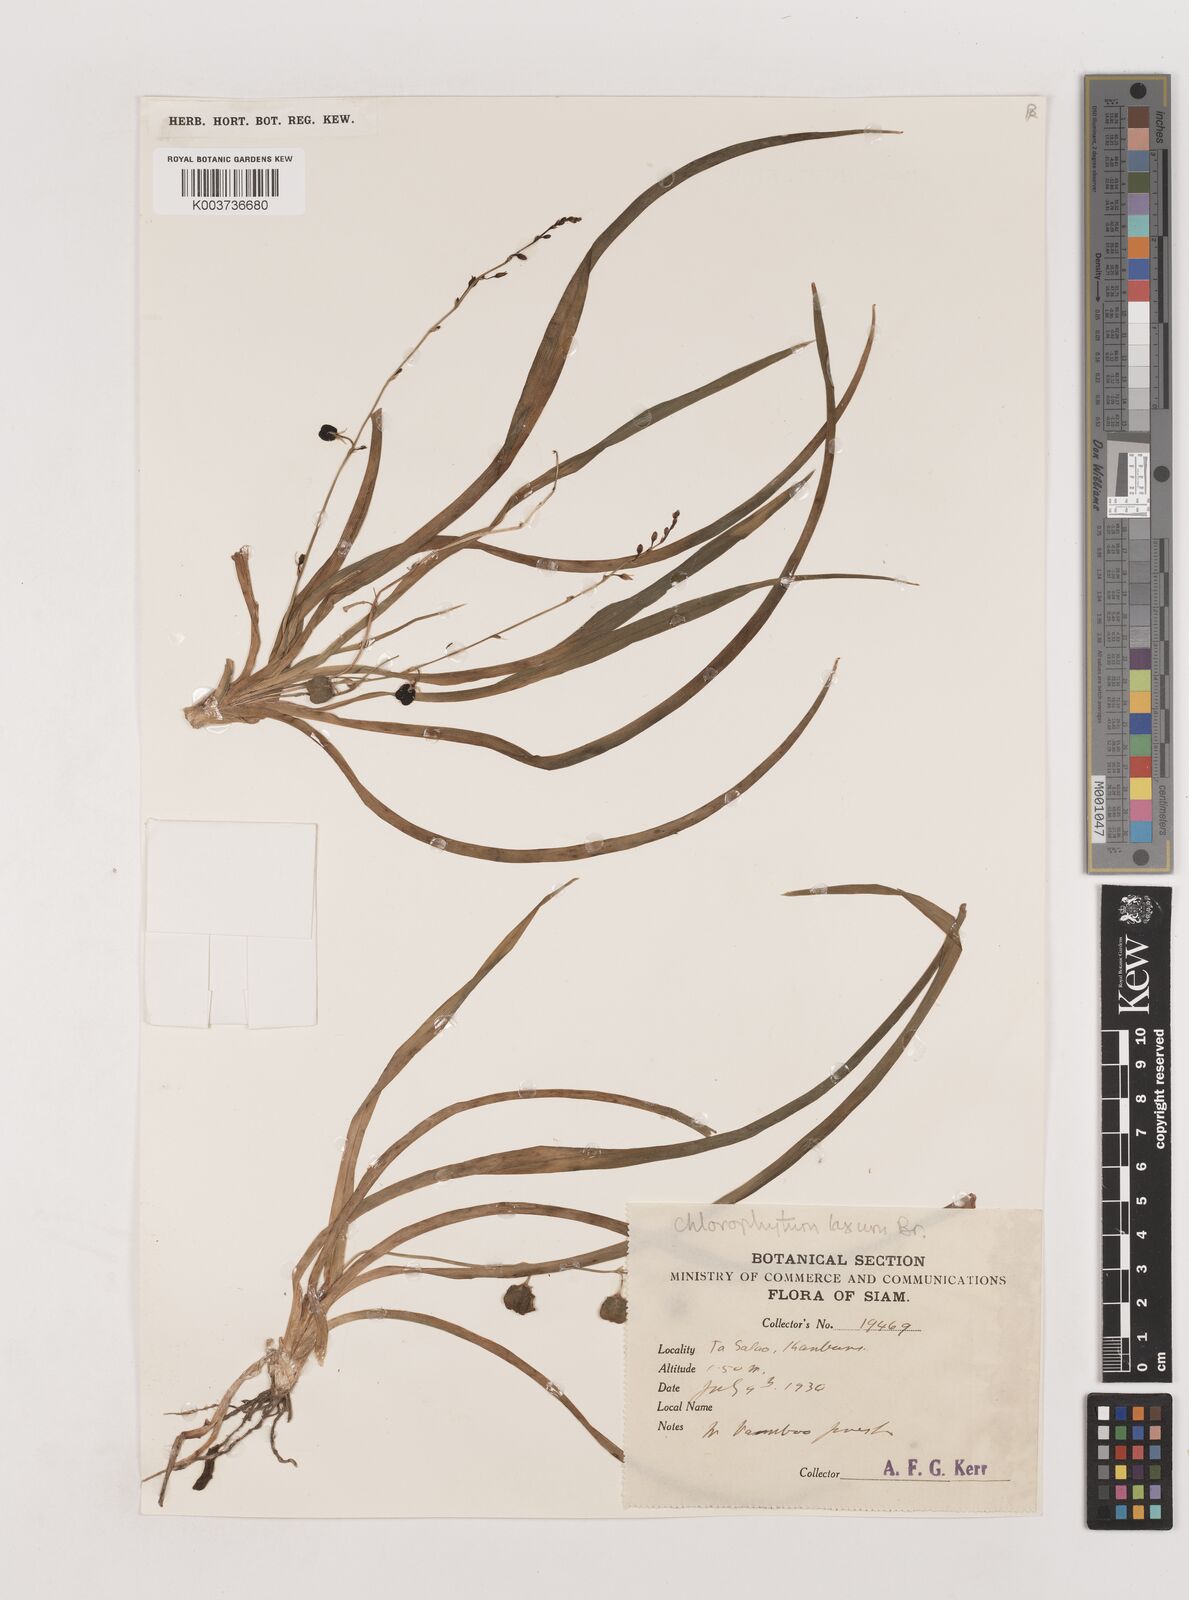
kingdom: Plantae
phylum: Tracheophyta
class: Liliopsida
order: Asparagales
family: Asparagaceae
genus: Chlorophytum
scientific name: Chlorophytum laxum
